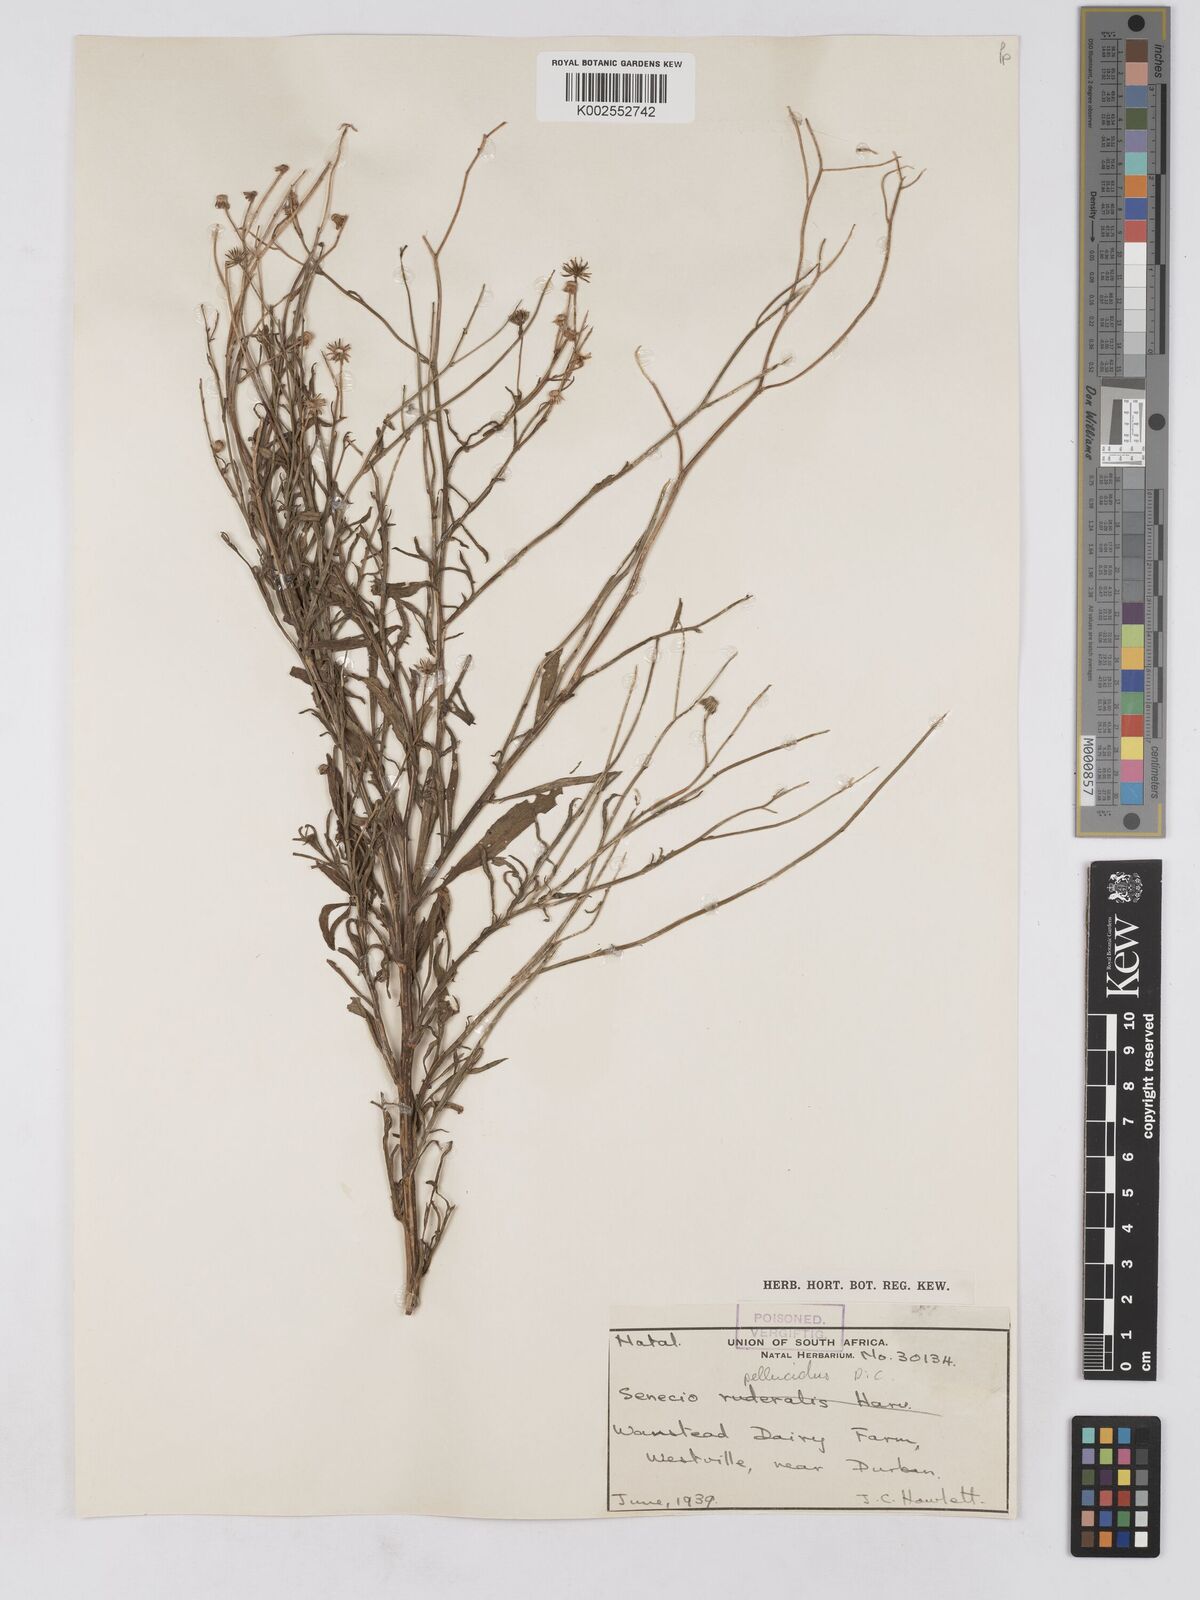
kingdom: Plantae
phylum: Tracheophyta
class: Magnoliopsida
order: Asterales
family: Asteraceae
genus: Senecio
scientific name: Senecio madagascariensis
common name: Madagascar ragwort
